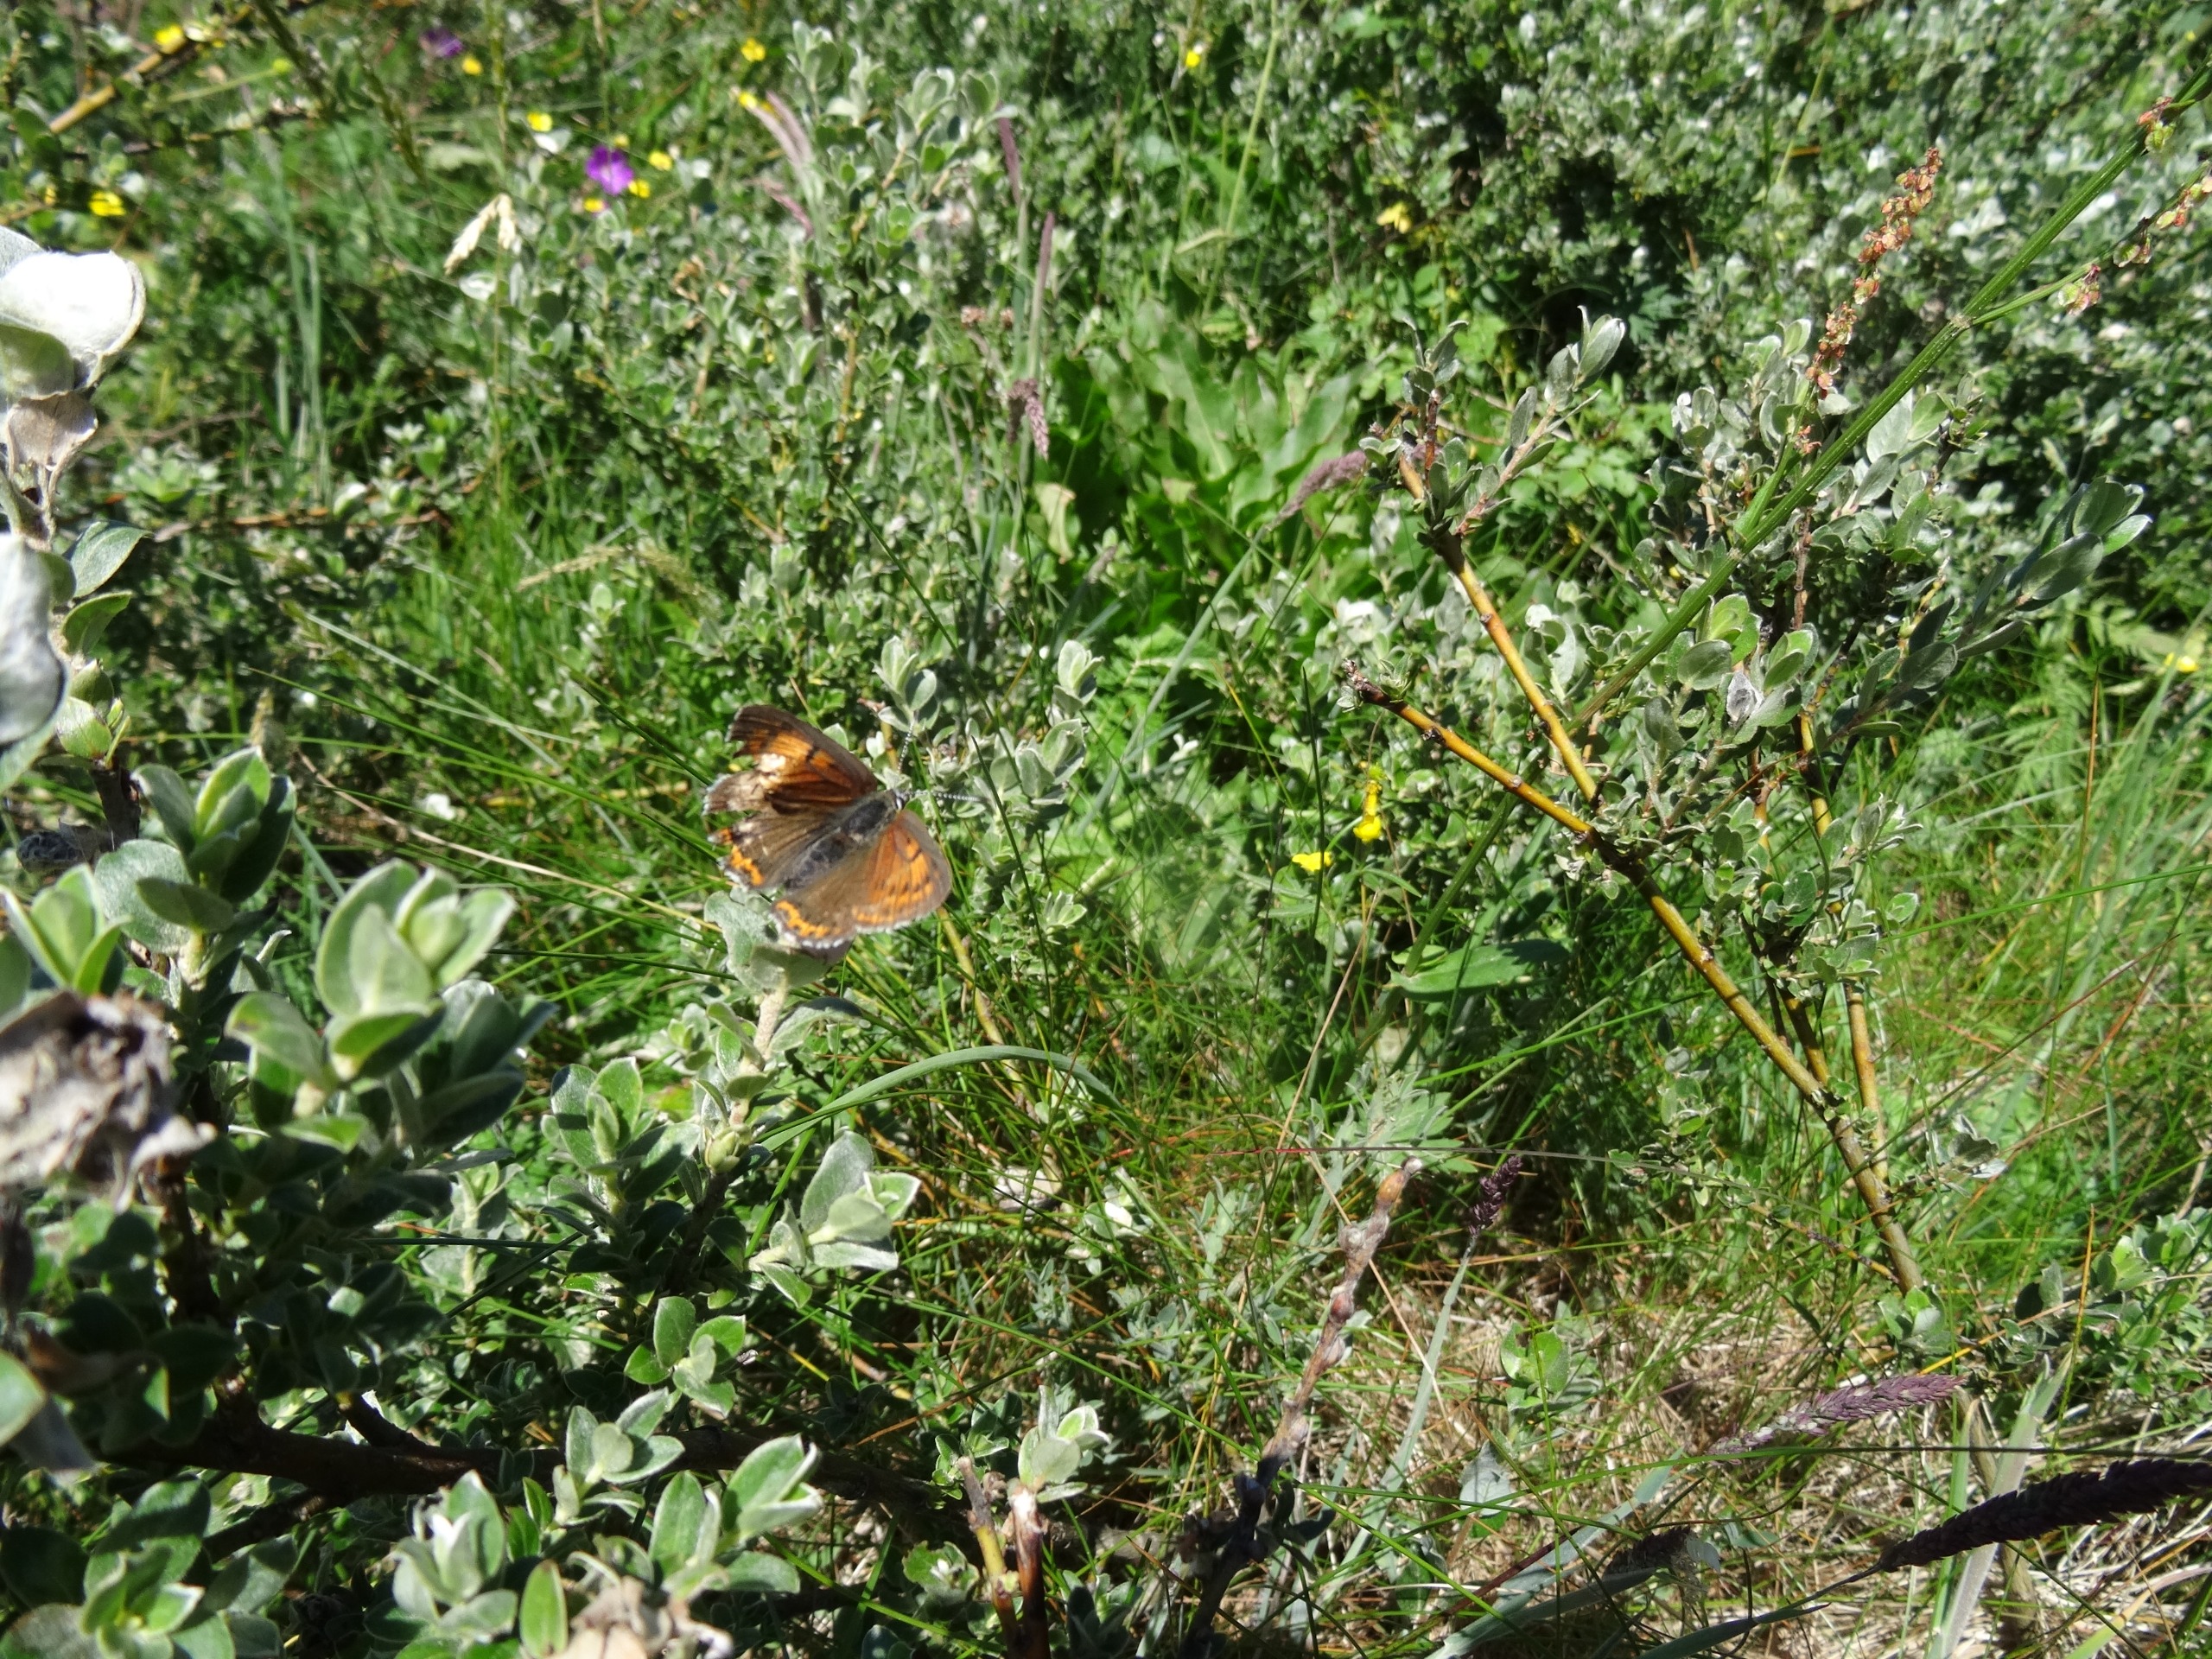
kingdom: Animalia
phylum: Arthropoda
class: Insecta
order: Lepidoptera
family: Lycaenidae
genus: Palaeochrysophanus
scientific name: Palaeochrysophanus hippothoe
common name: Violetrandet ildfugl
